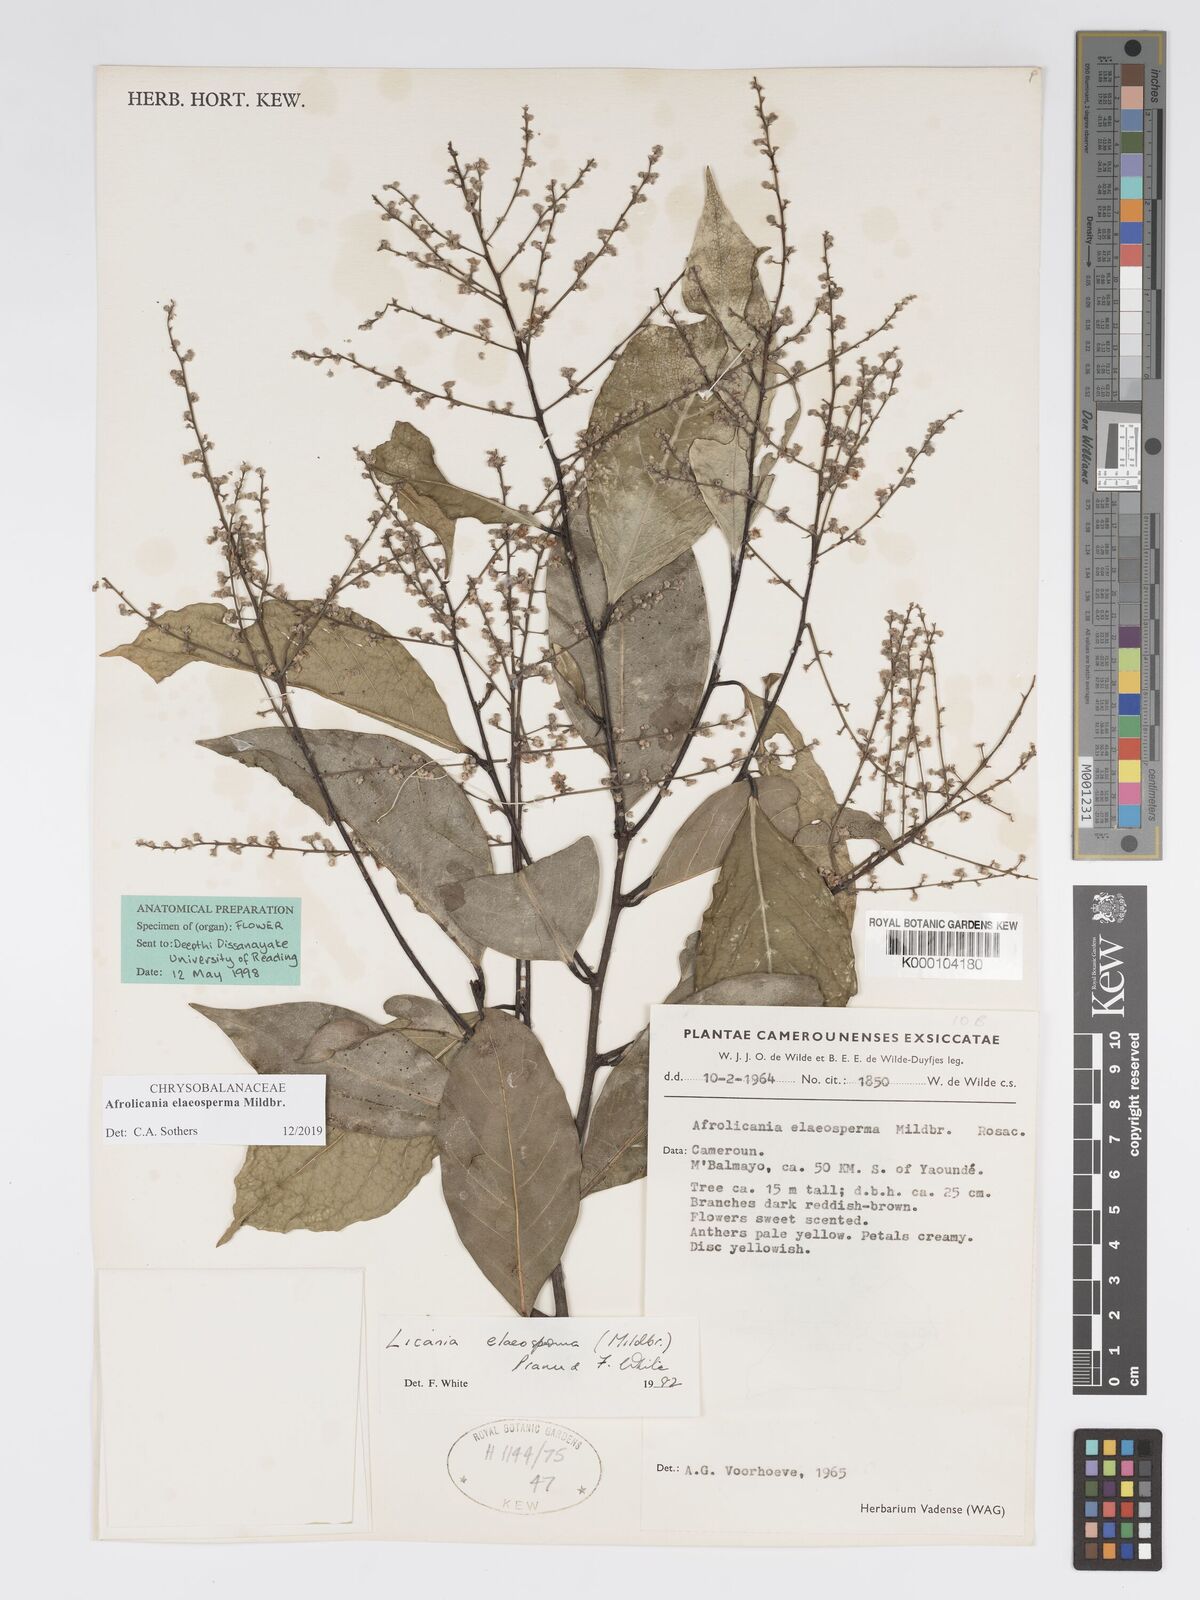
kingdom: Plantae
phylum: Tracheophyta
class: Magnoliopsida
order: Malpighiales
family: Chrysobalanaceae
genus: Afrolicania
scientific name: Afrolicania elaeosperma
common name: Nikko
